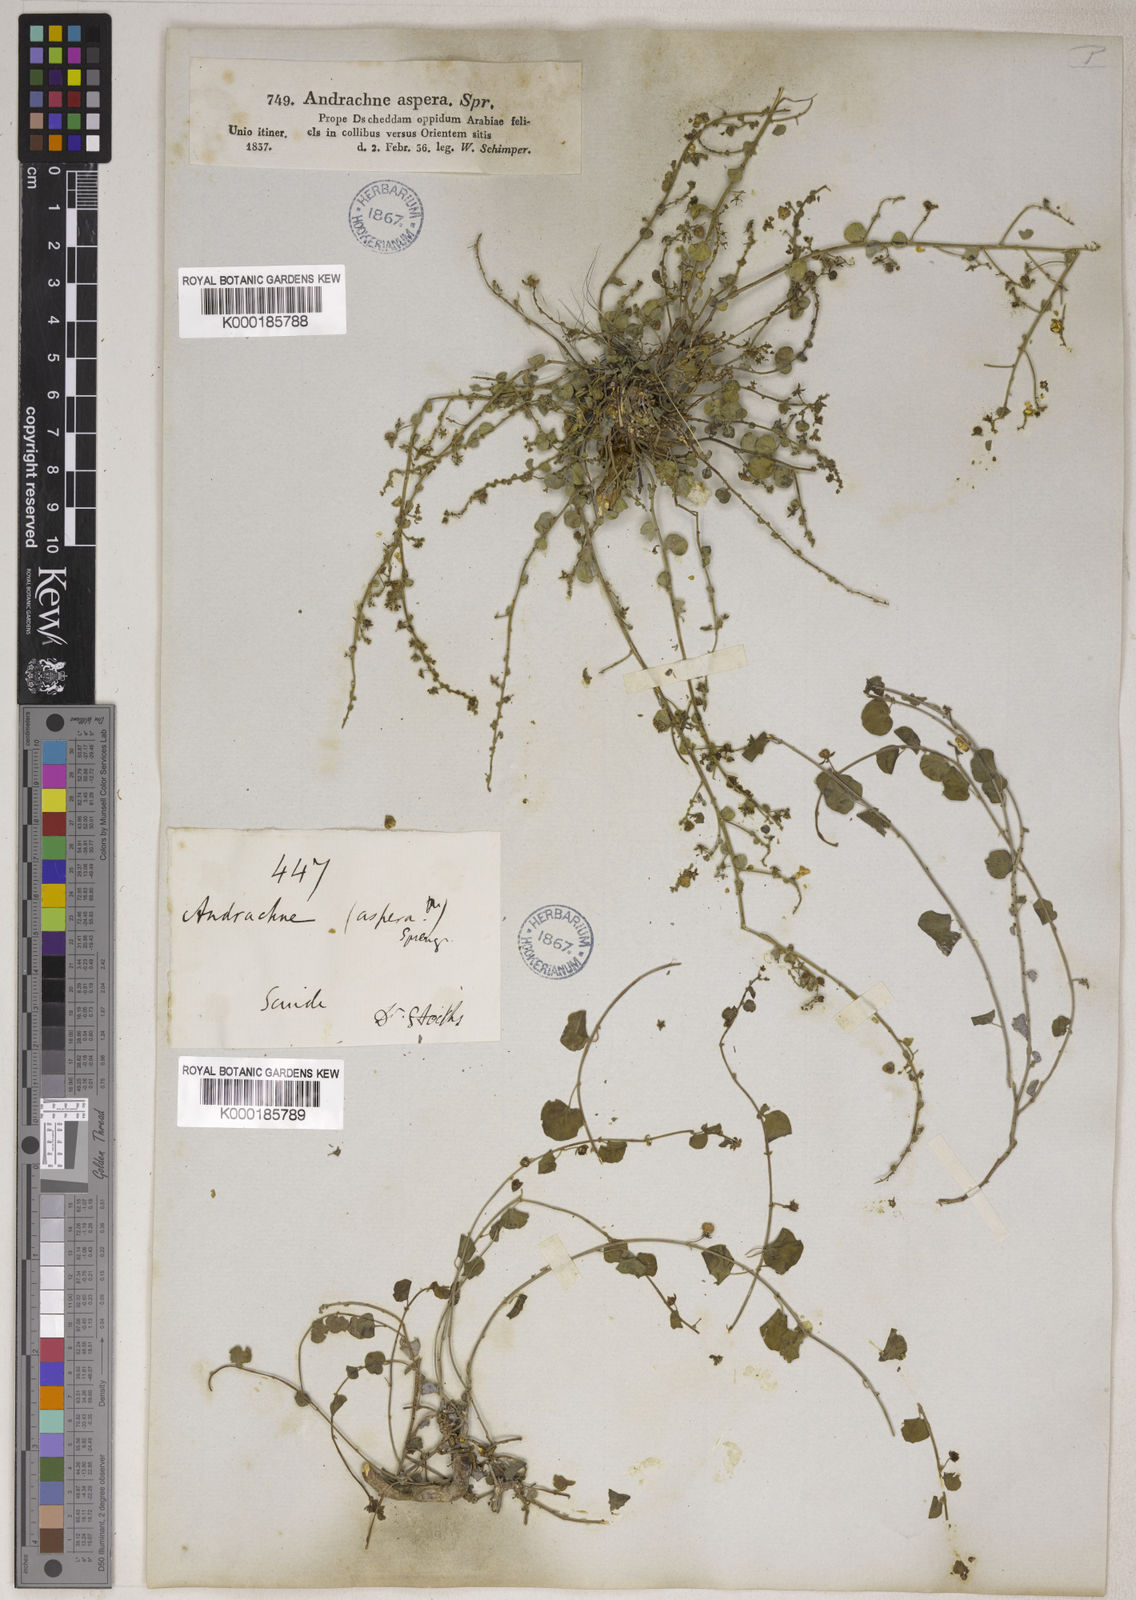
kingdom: Plantae
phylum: Tracheophyta
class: Magnoliopsida
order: Malpighiales
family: Phyllanthaceae
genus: Andrachne
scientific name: Andrachne aspera
